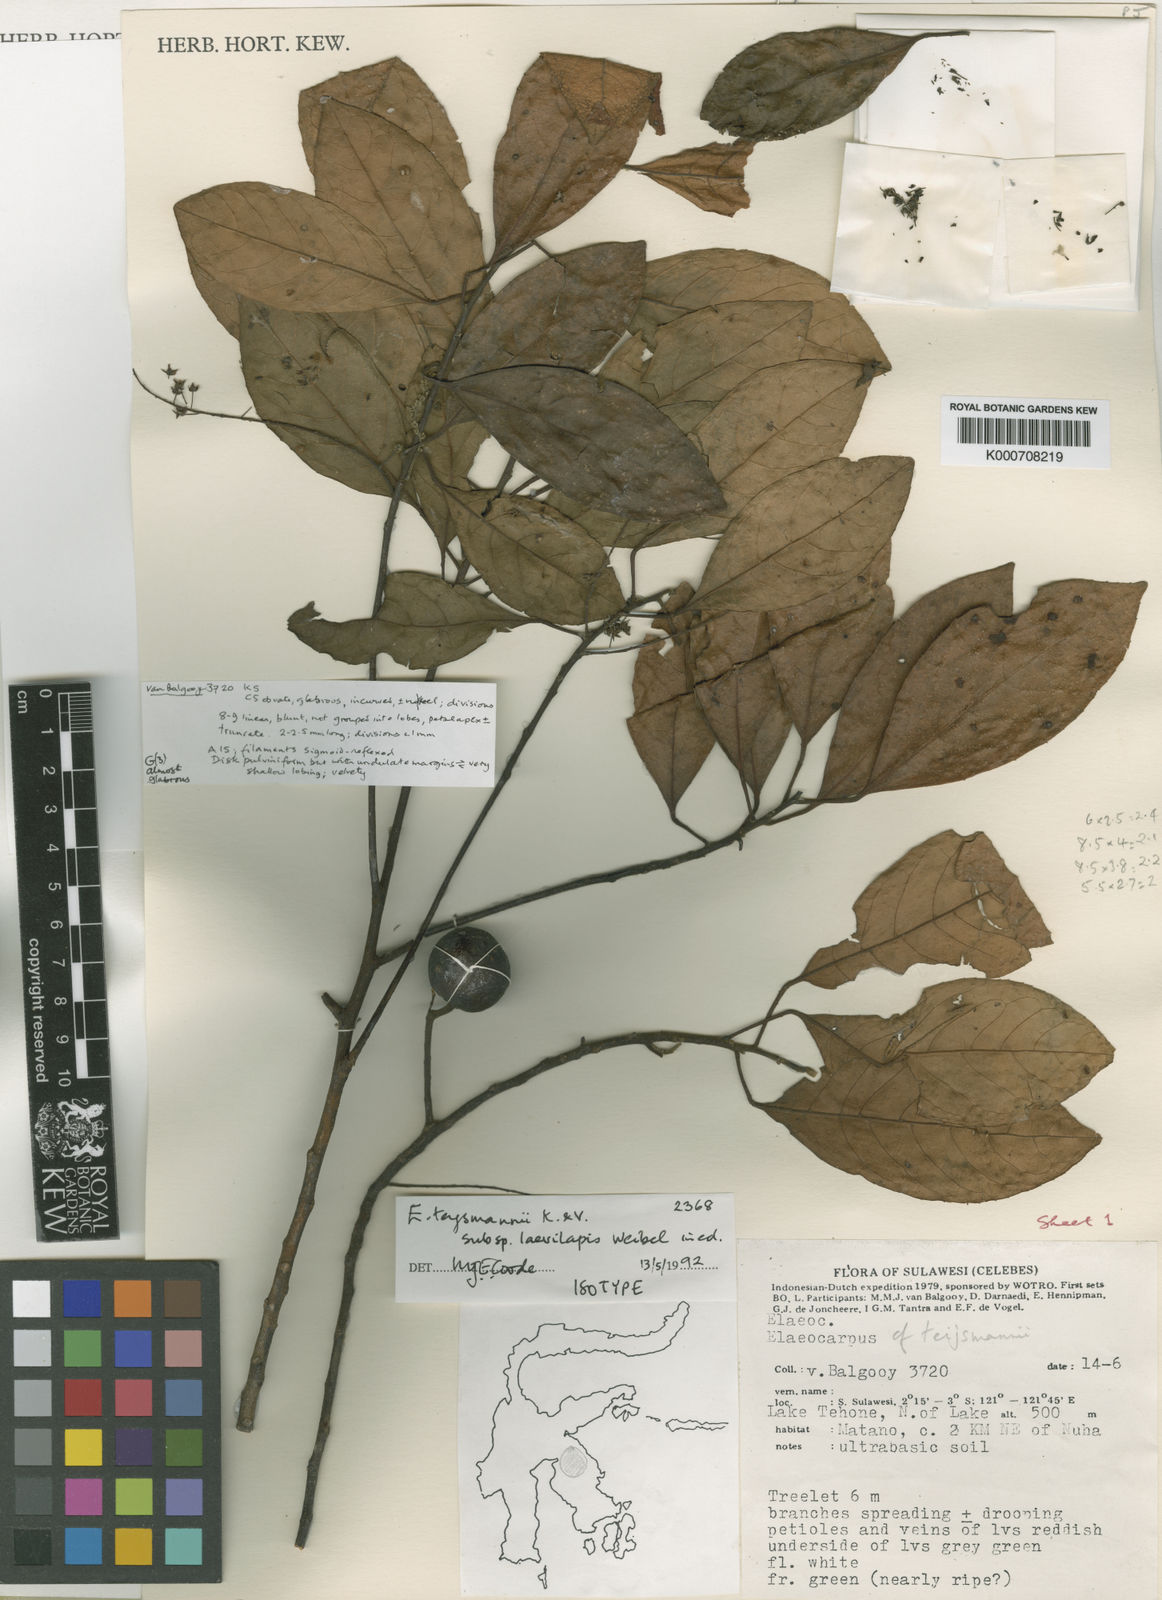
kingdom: Plantae
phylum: Tracheophyta
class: Magnoliopsida
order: Oxalidales
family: Elaeocarpaceae
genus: Elaeocarpus
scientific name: Elaeocarpus teysmannii
